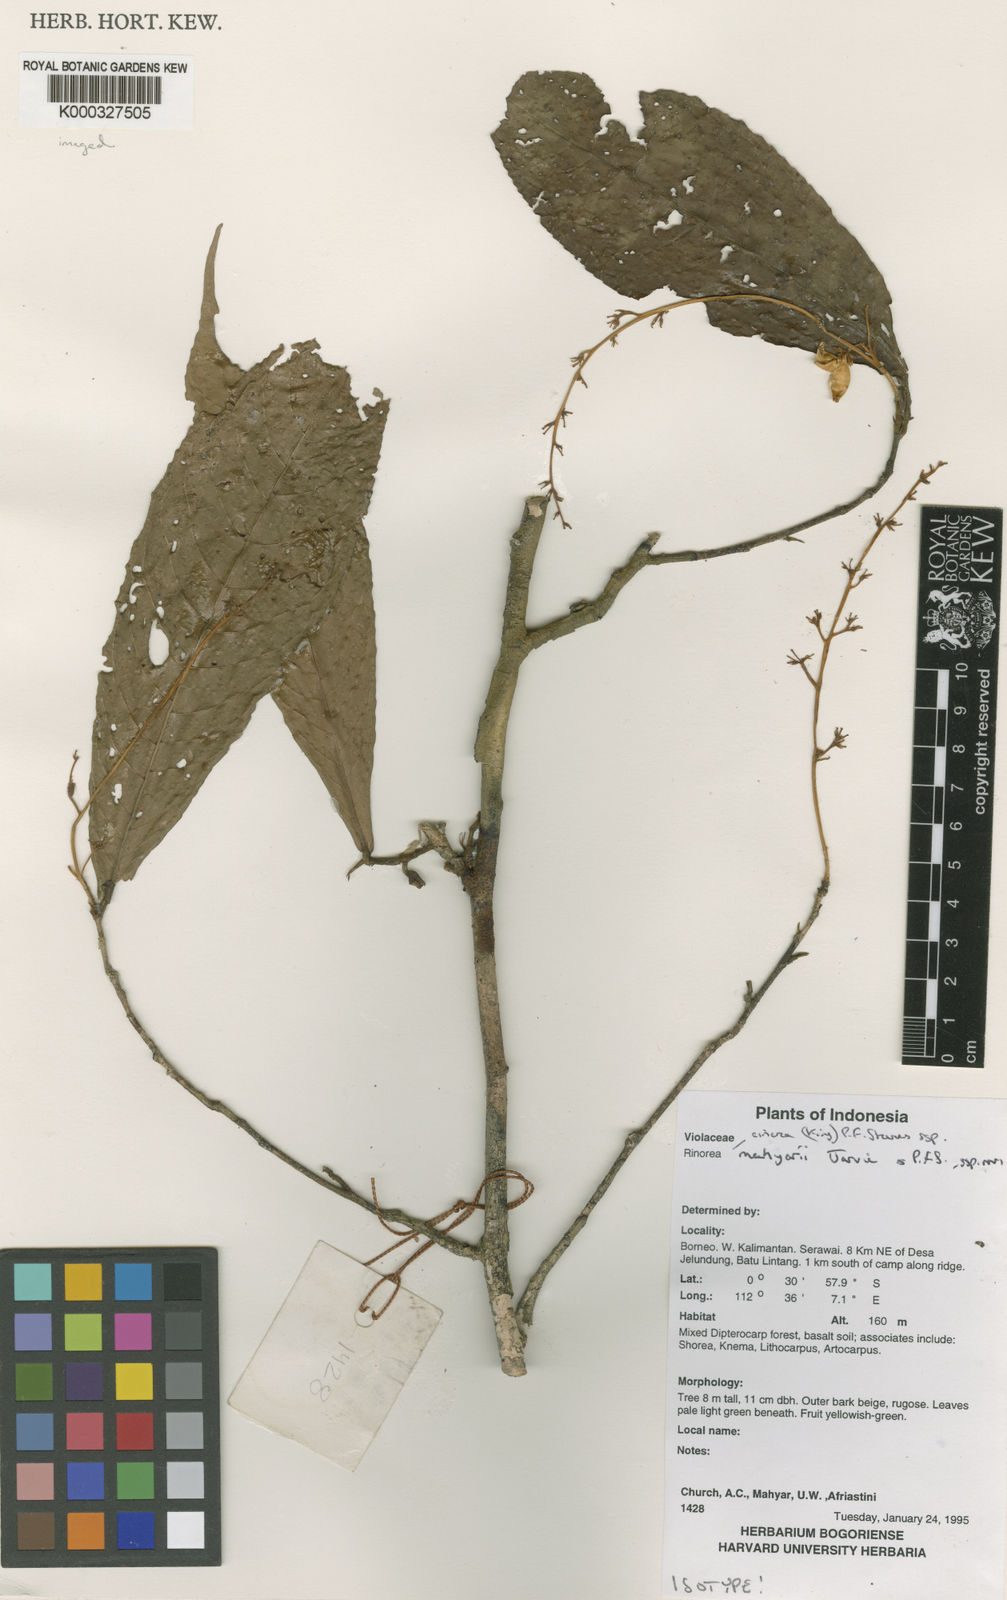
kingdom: Plantae
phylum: Tracheophyta
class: Magnoliopsida
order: Malpighiales
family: Violaceae
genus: Rinorea
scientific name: Rinorea cinerea
